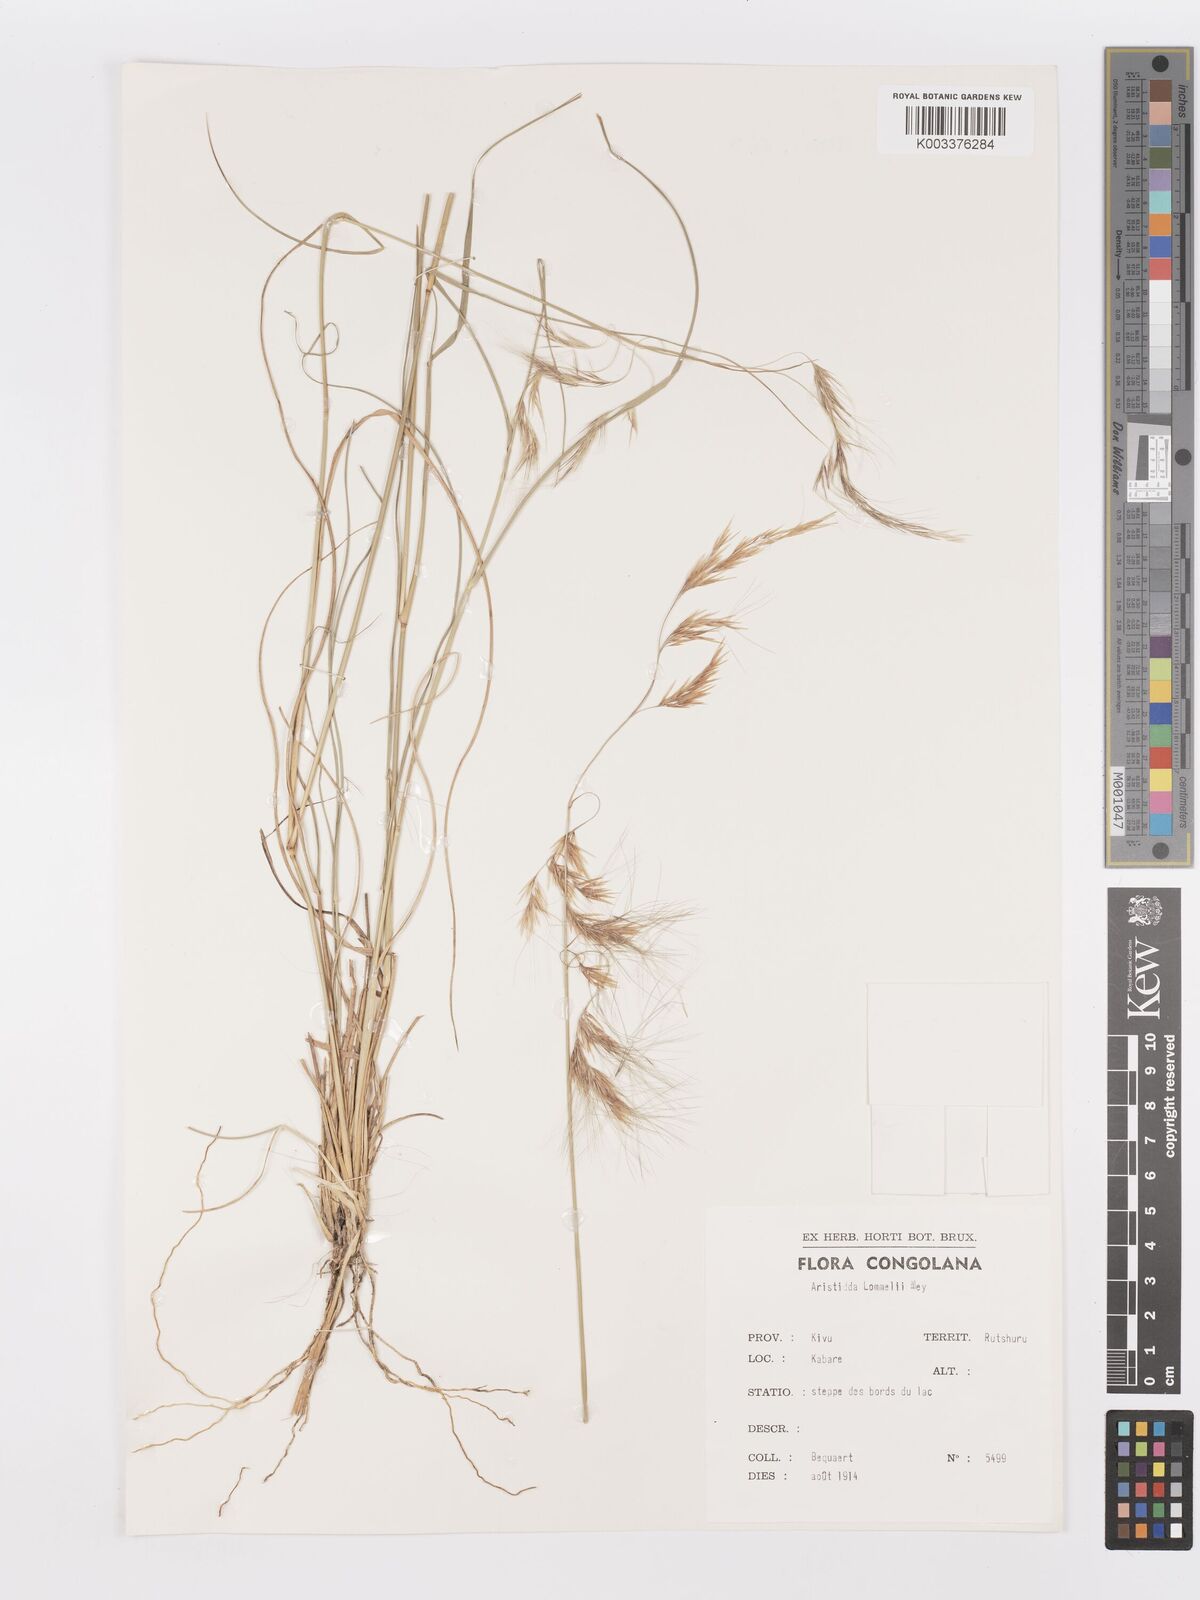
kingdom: Plantae
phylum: Tracheophyta
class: Liliopsida
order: Poales
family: Poaceae
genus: Aristida
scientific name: Aristida barbicollis
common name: Spreading prickle grass
